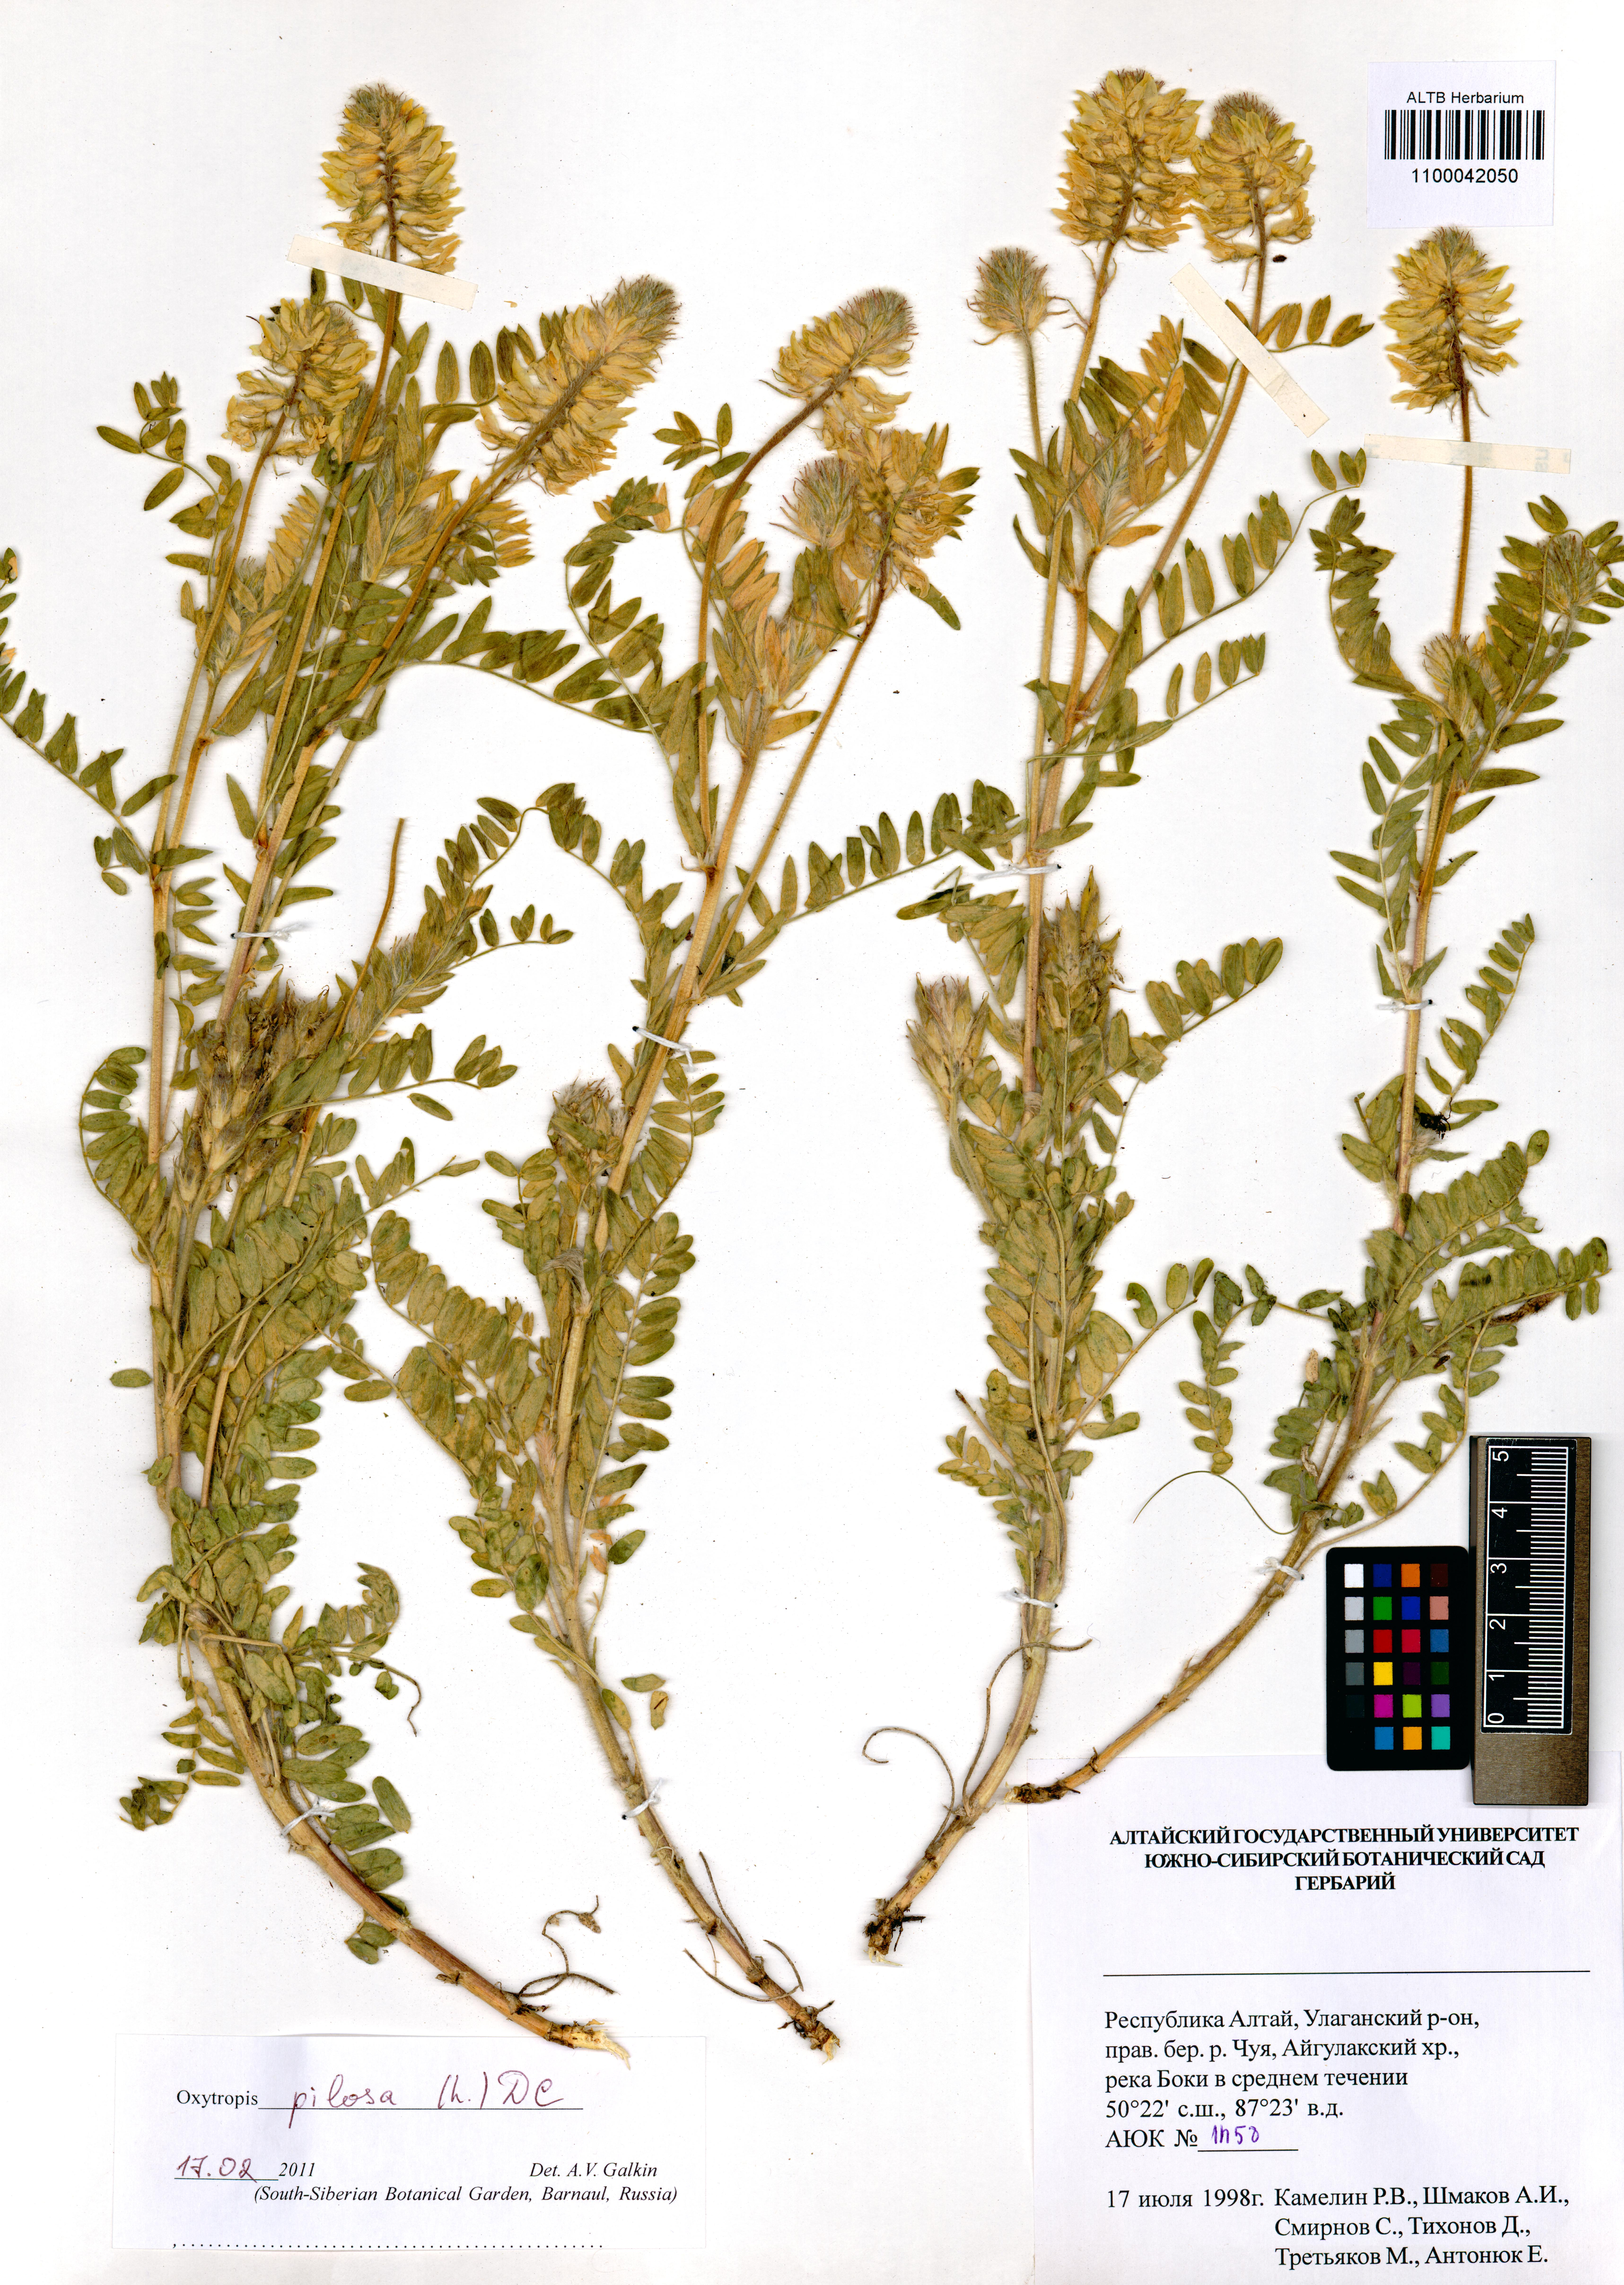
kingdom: Plantae
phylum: Tracheophyta
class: Magnoliopsida
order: Fabales
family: Fabaceae
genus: Oxytropis
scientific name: Oxytropis pilosa
